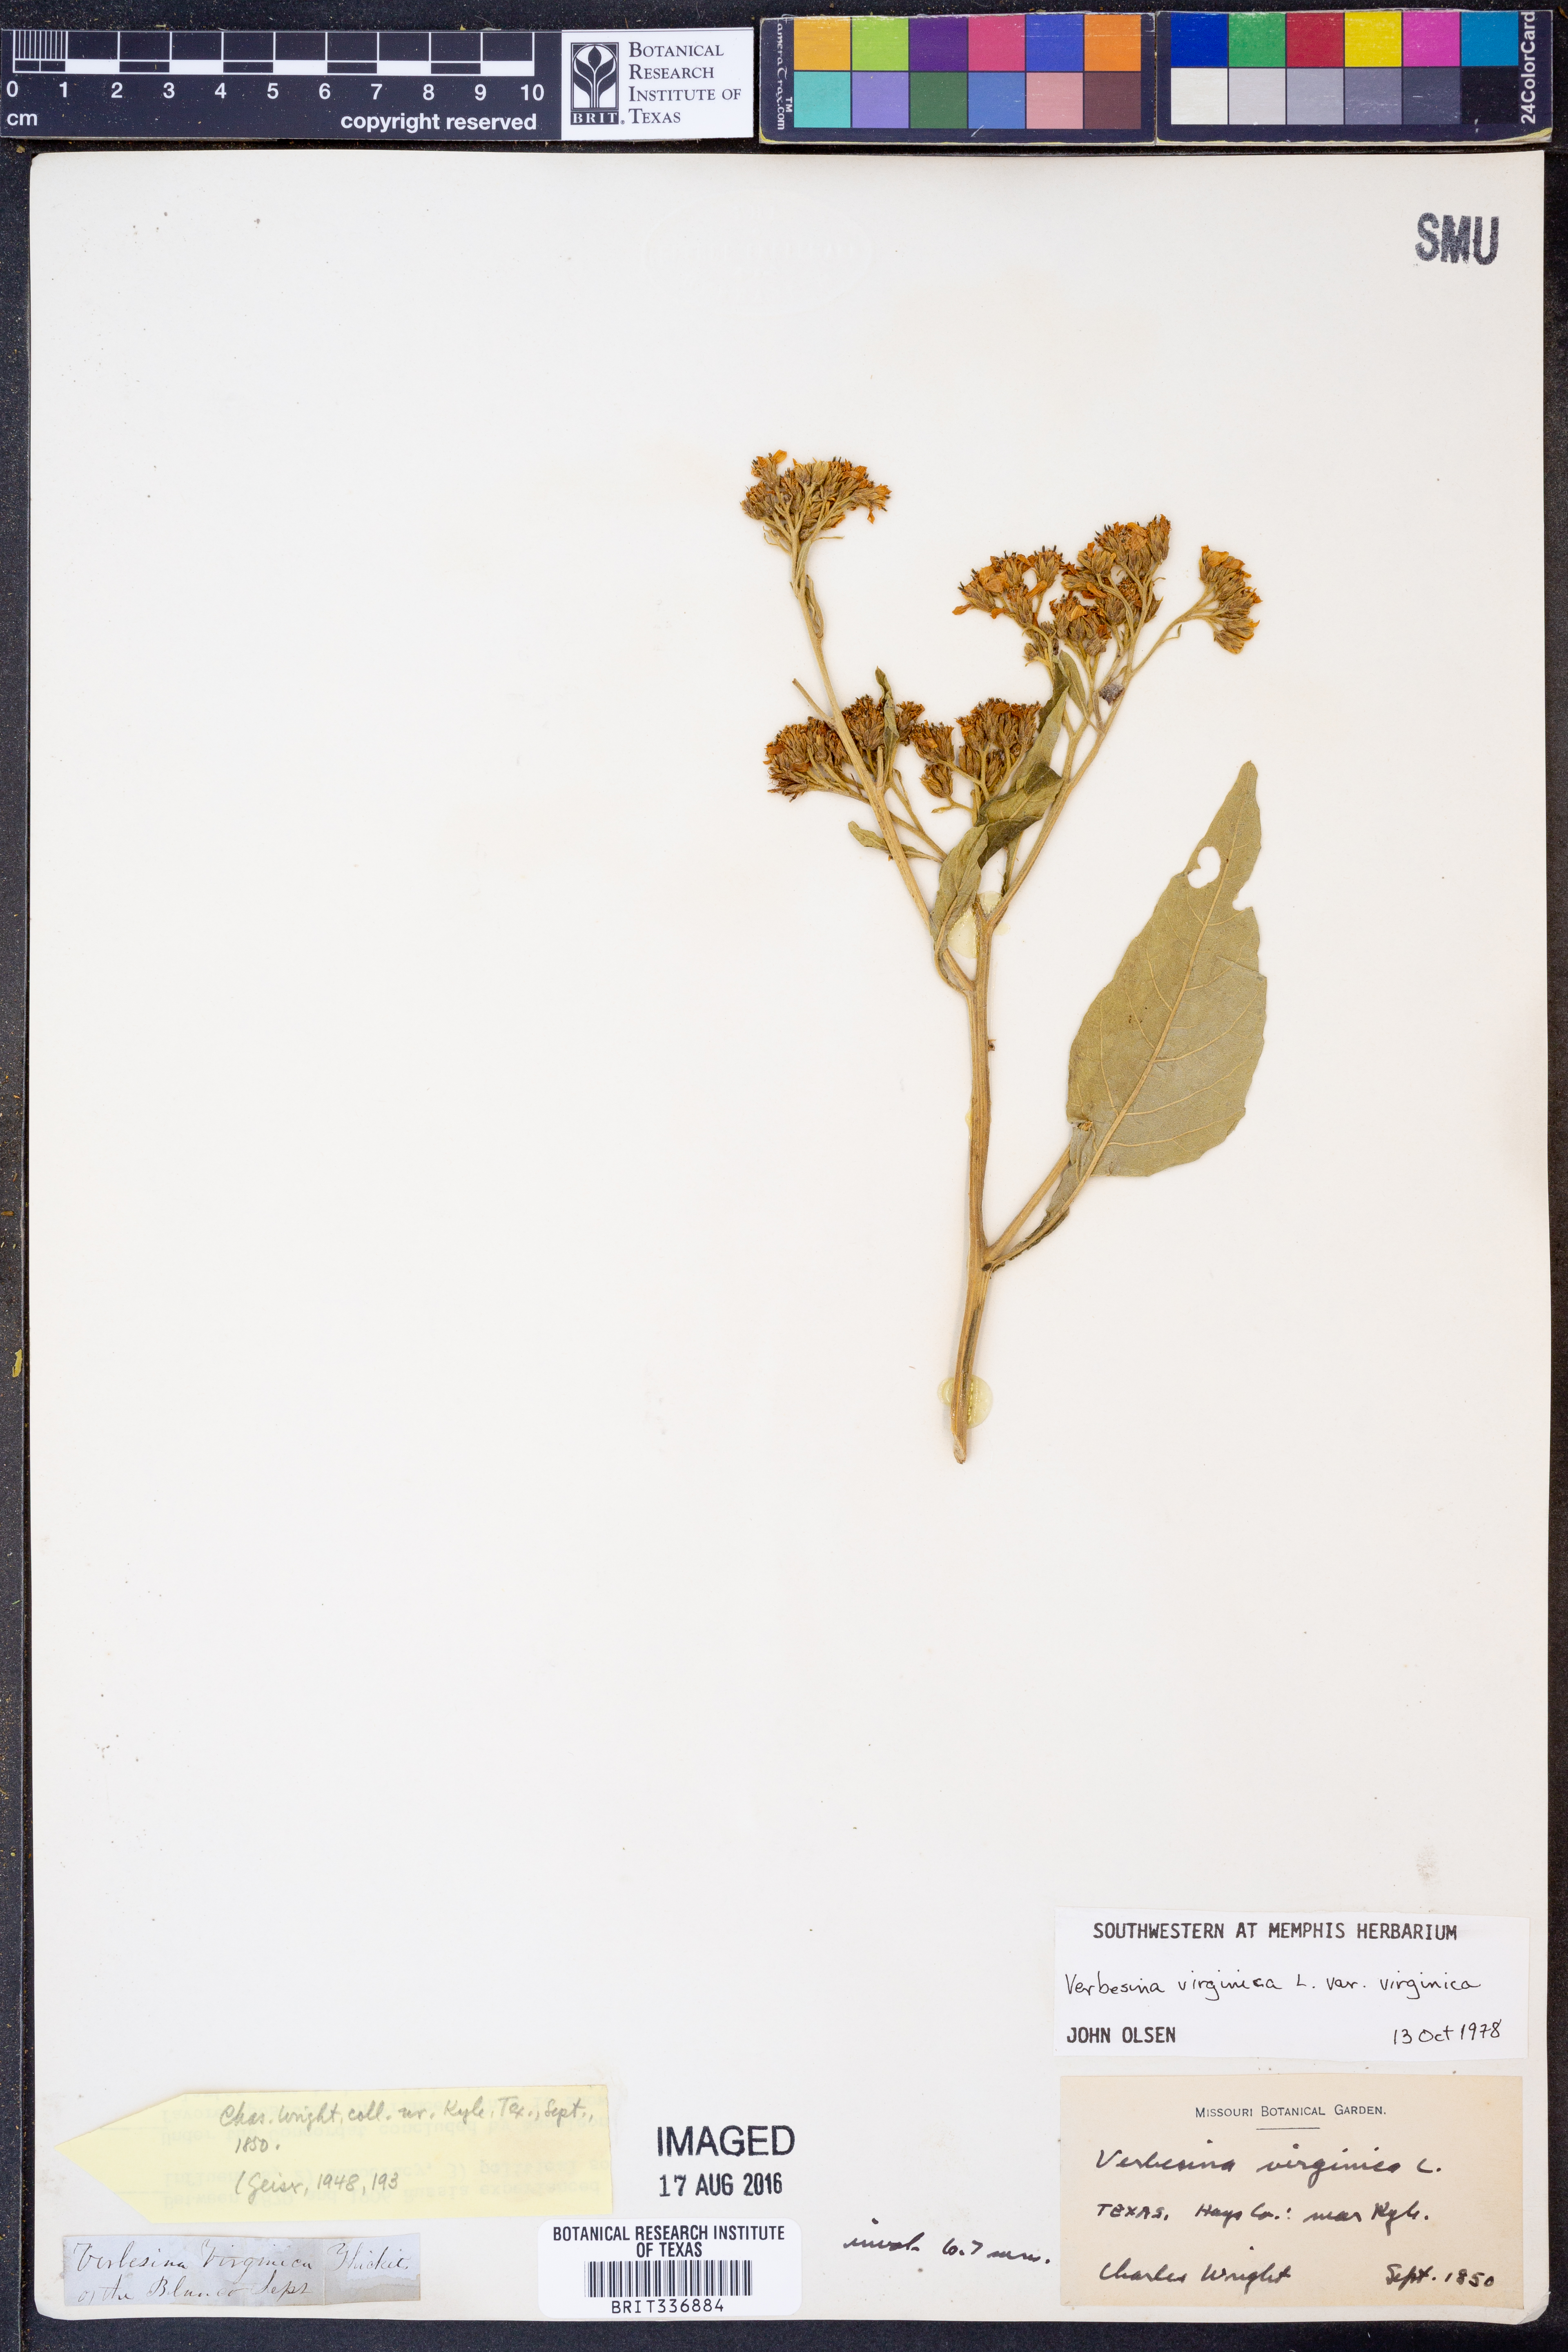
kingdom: Plantae
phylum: Tracheophyta
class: Magnoliopsida
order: Asterales
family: Asteraceae
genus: Verbesina
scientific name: Verbesina virginica
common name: Frostweed
